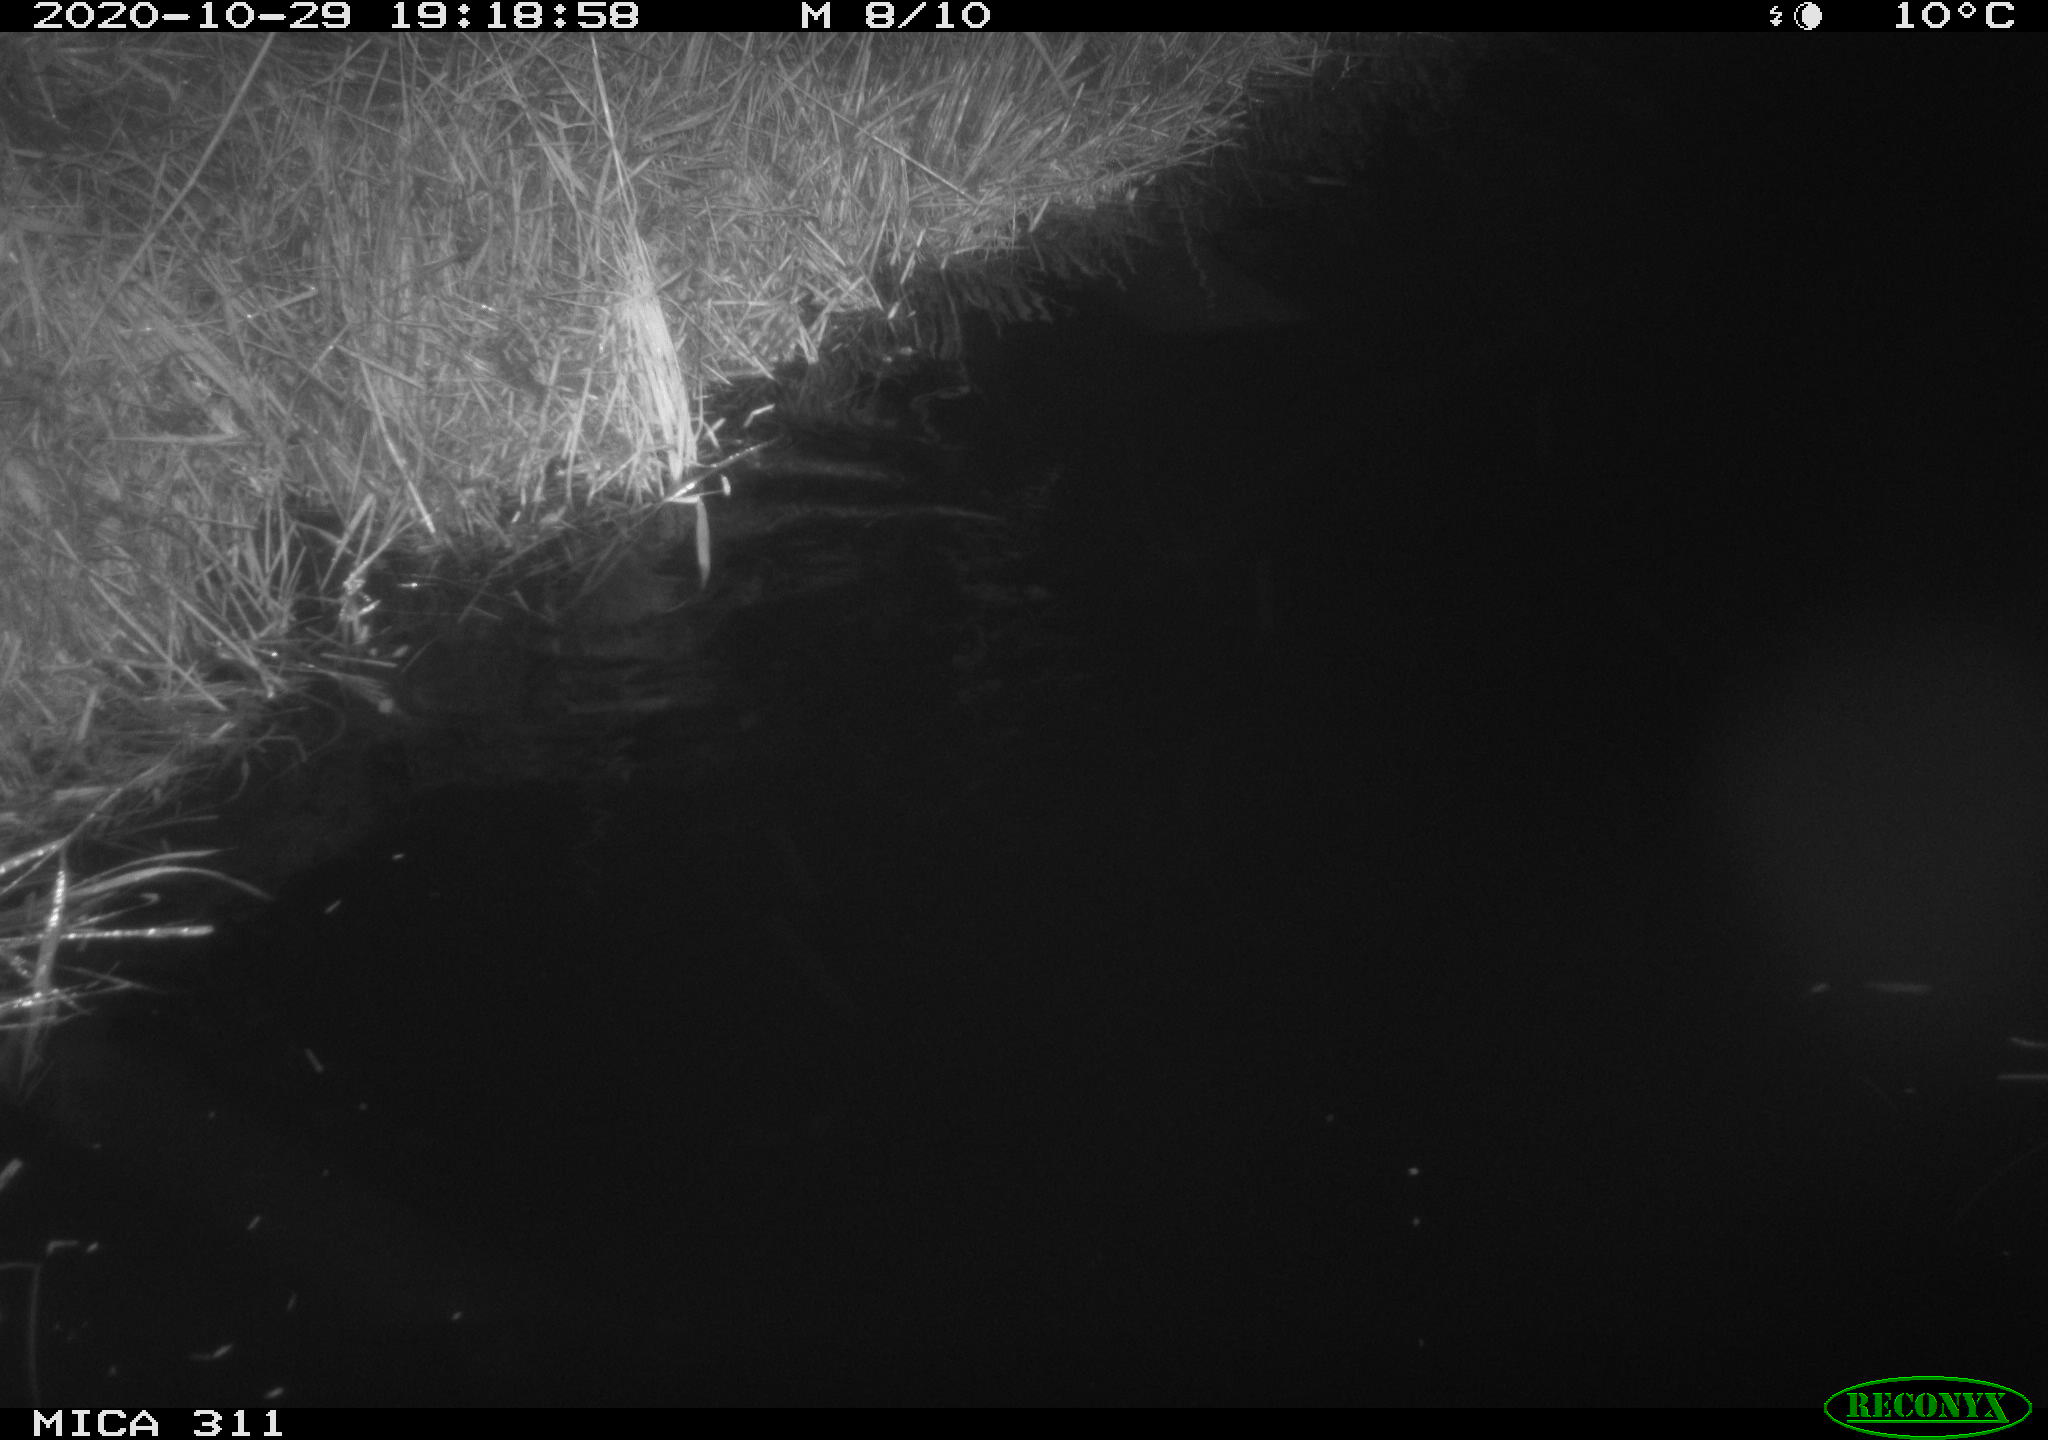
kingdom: Animalia
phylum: Chordata
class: Mammalia
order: Rodentia
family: Muridae
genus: Rattus
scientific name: Rattus norvegicus
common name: Brown rat
